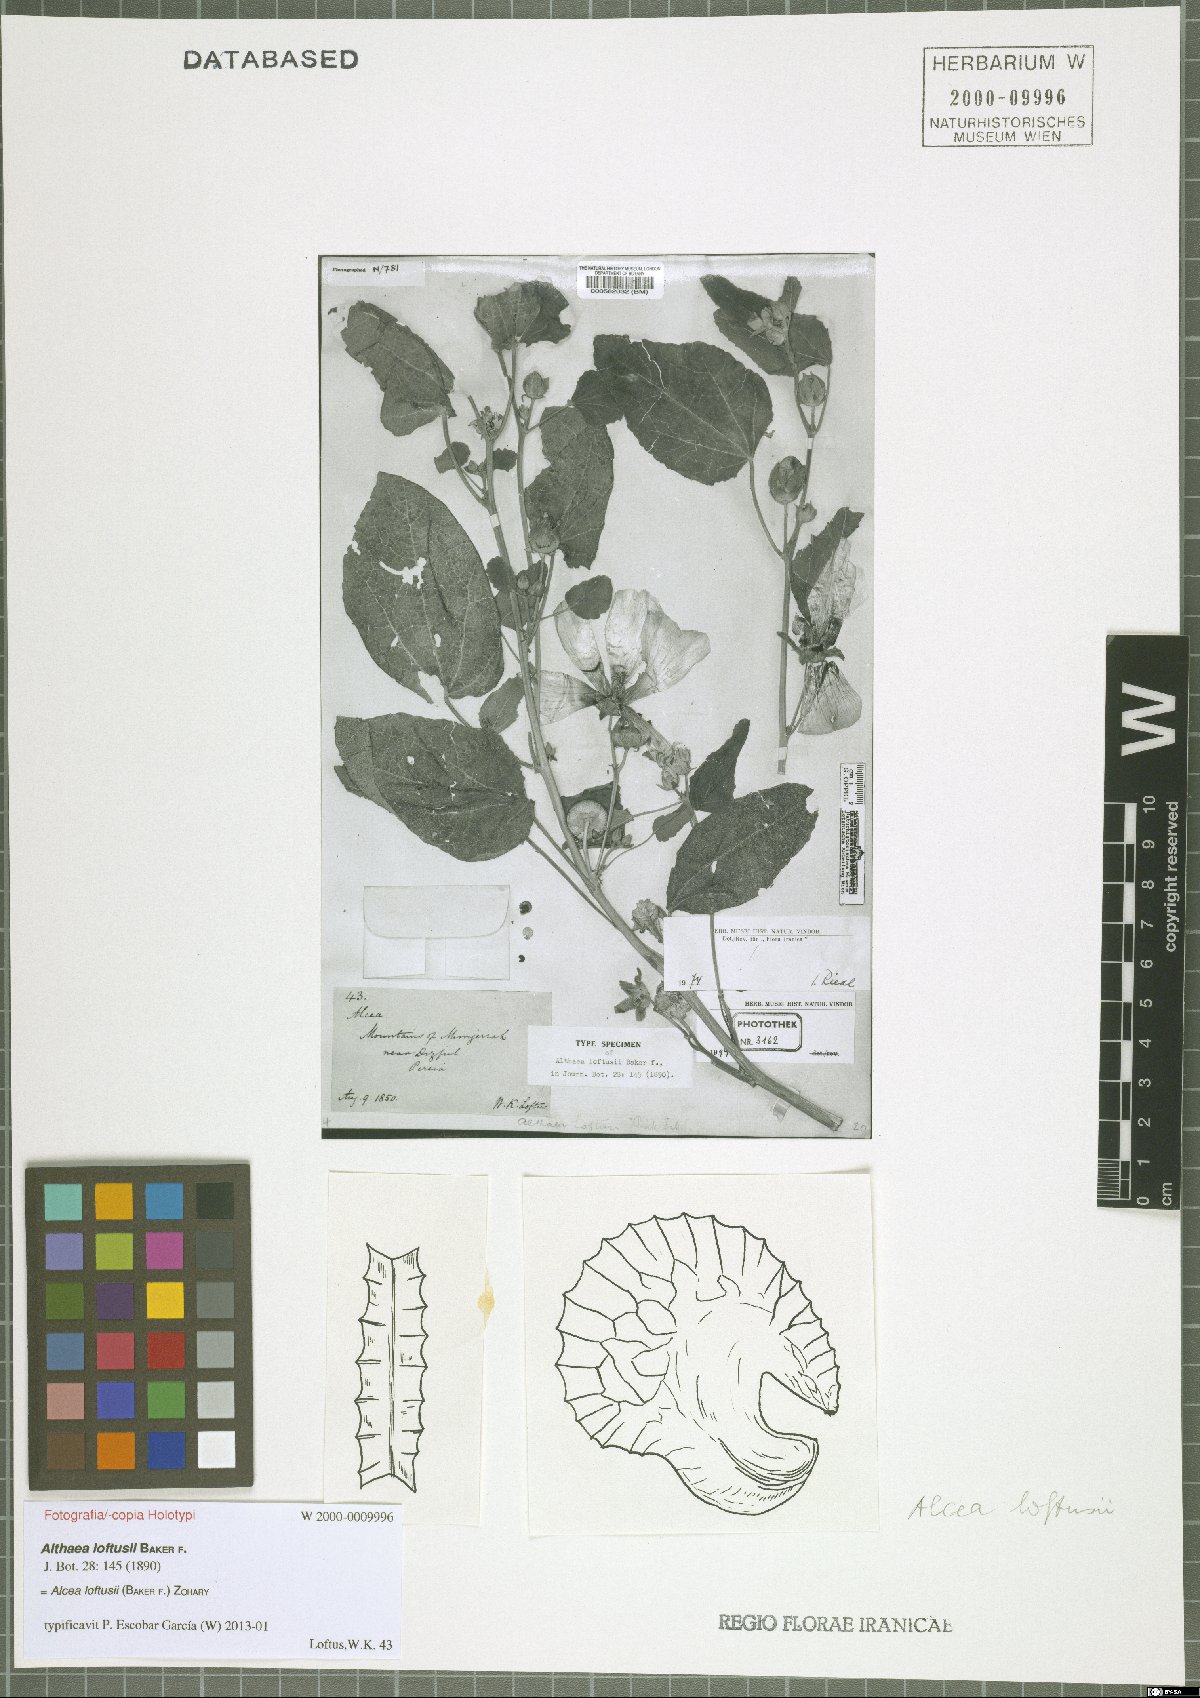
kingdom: Plantae
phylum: Tracheophyta
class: Magnoliopsida
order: Malvales
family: Malvaceae
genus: Alcea
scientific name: Alcea loftusii
